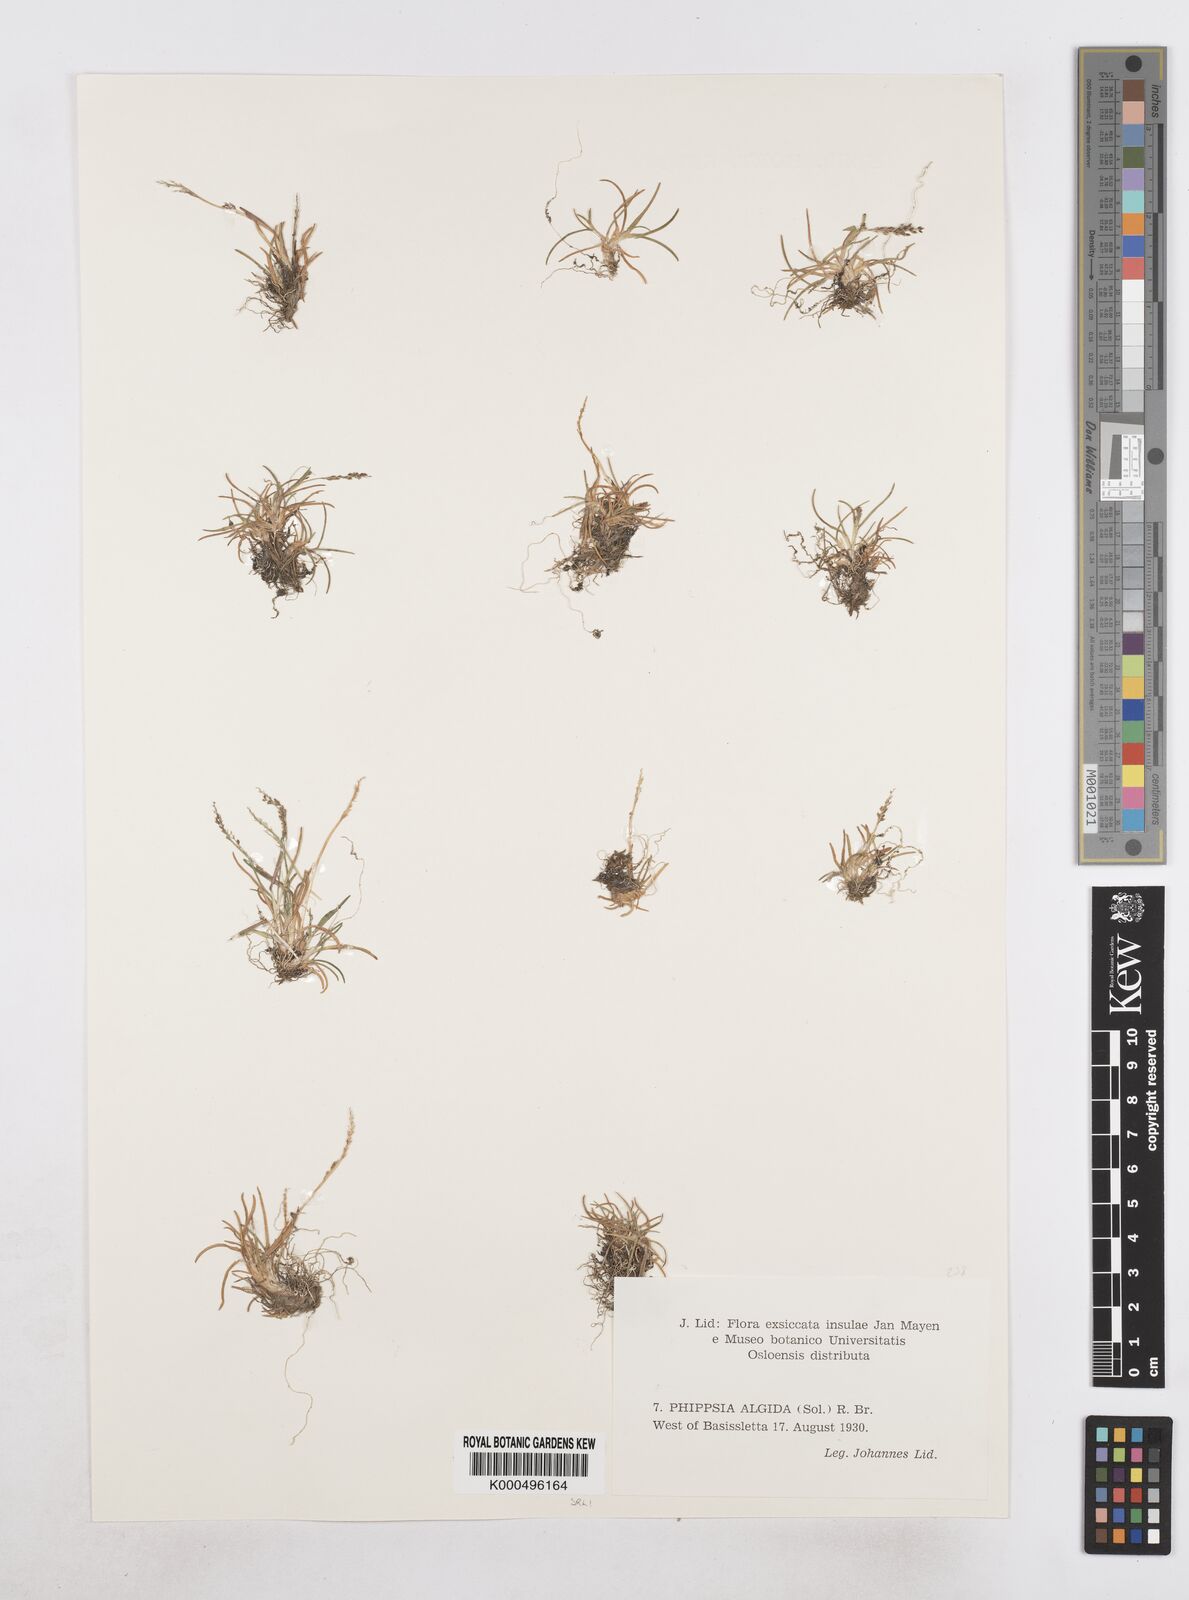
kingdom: Plantae
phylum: Tracheophyta
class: Liliopsida
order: Poales
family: Poaceae
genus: Phippsia
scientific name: Phippsia algida
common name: Ice grass
